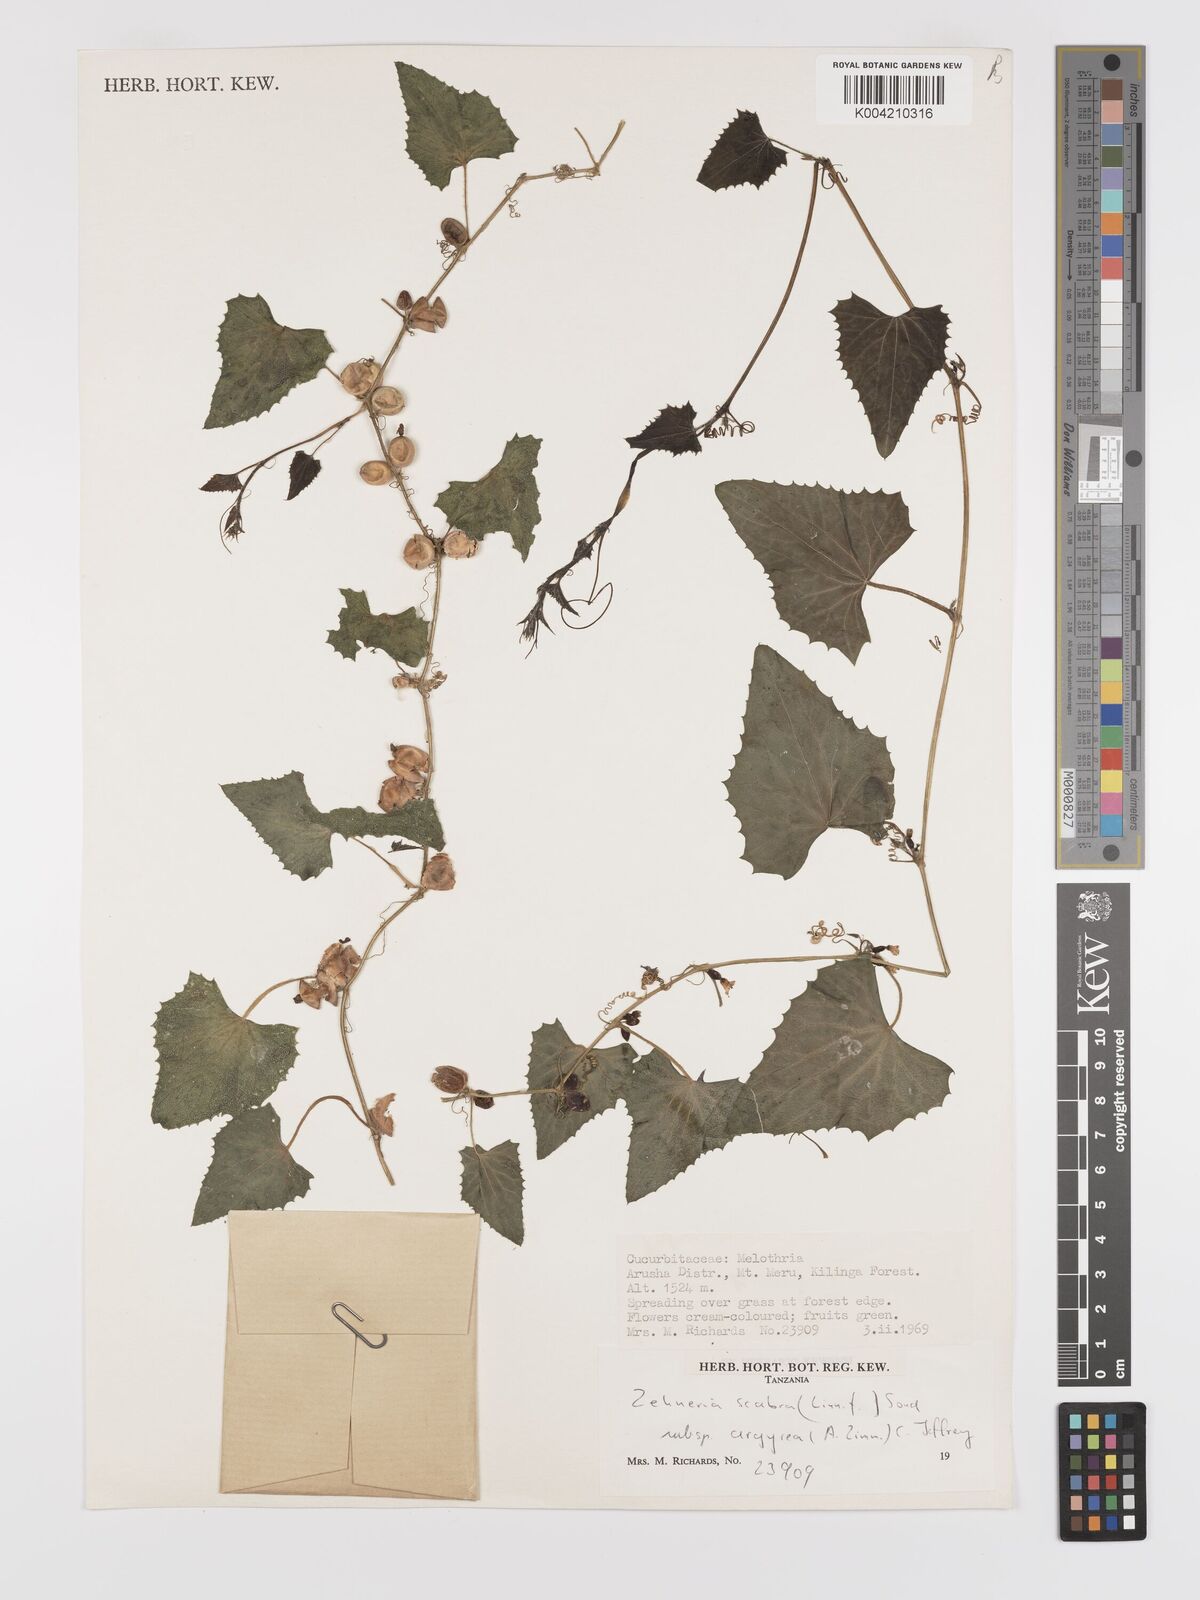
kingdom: Plantae
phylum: Tracheophyta
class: Magnoliopsida
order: Cucurbitales
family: Cucurbitaceae
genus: Zehneria
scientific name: Zehneria scabra
